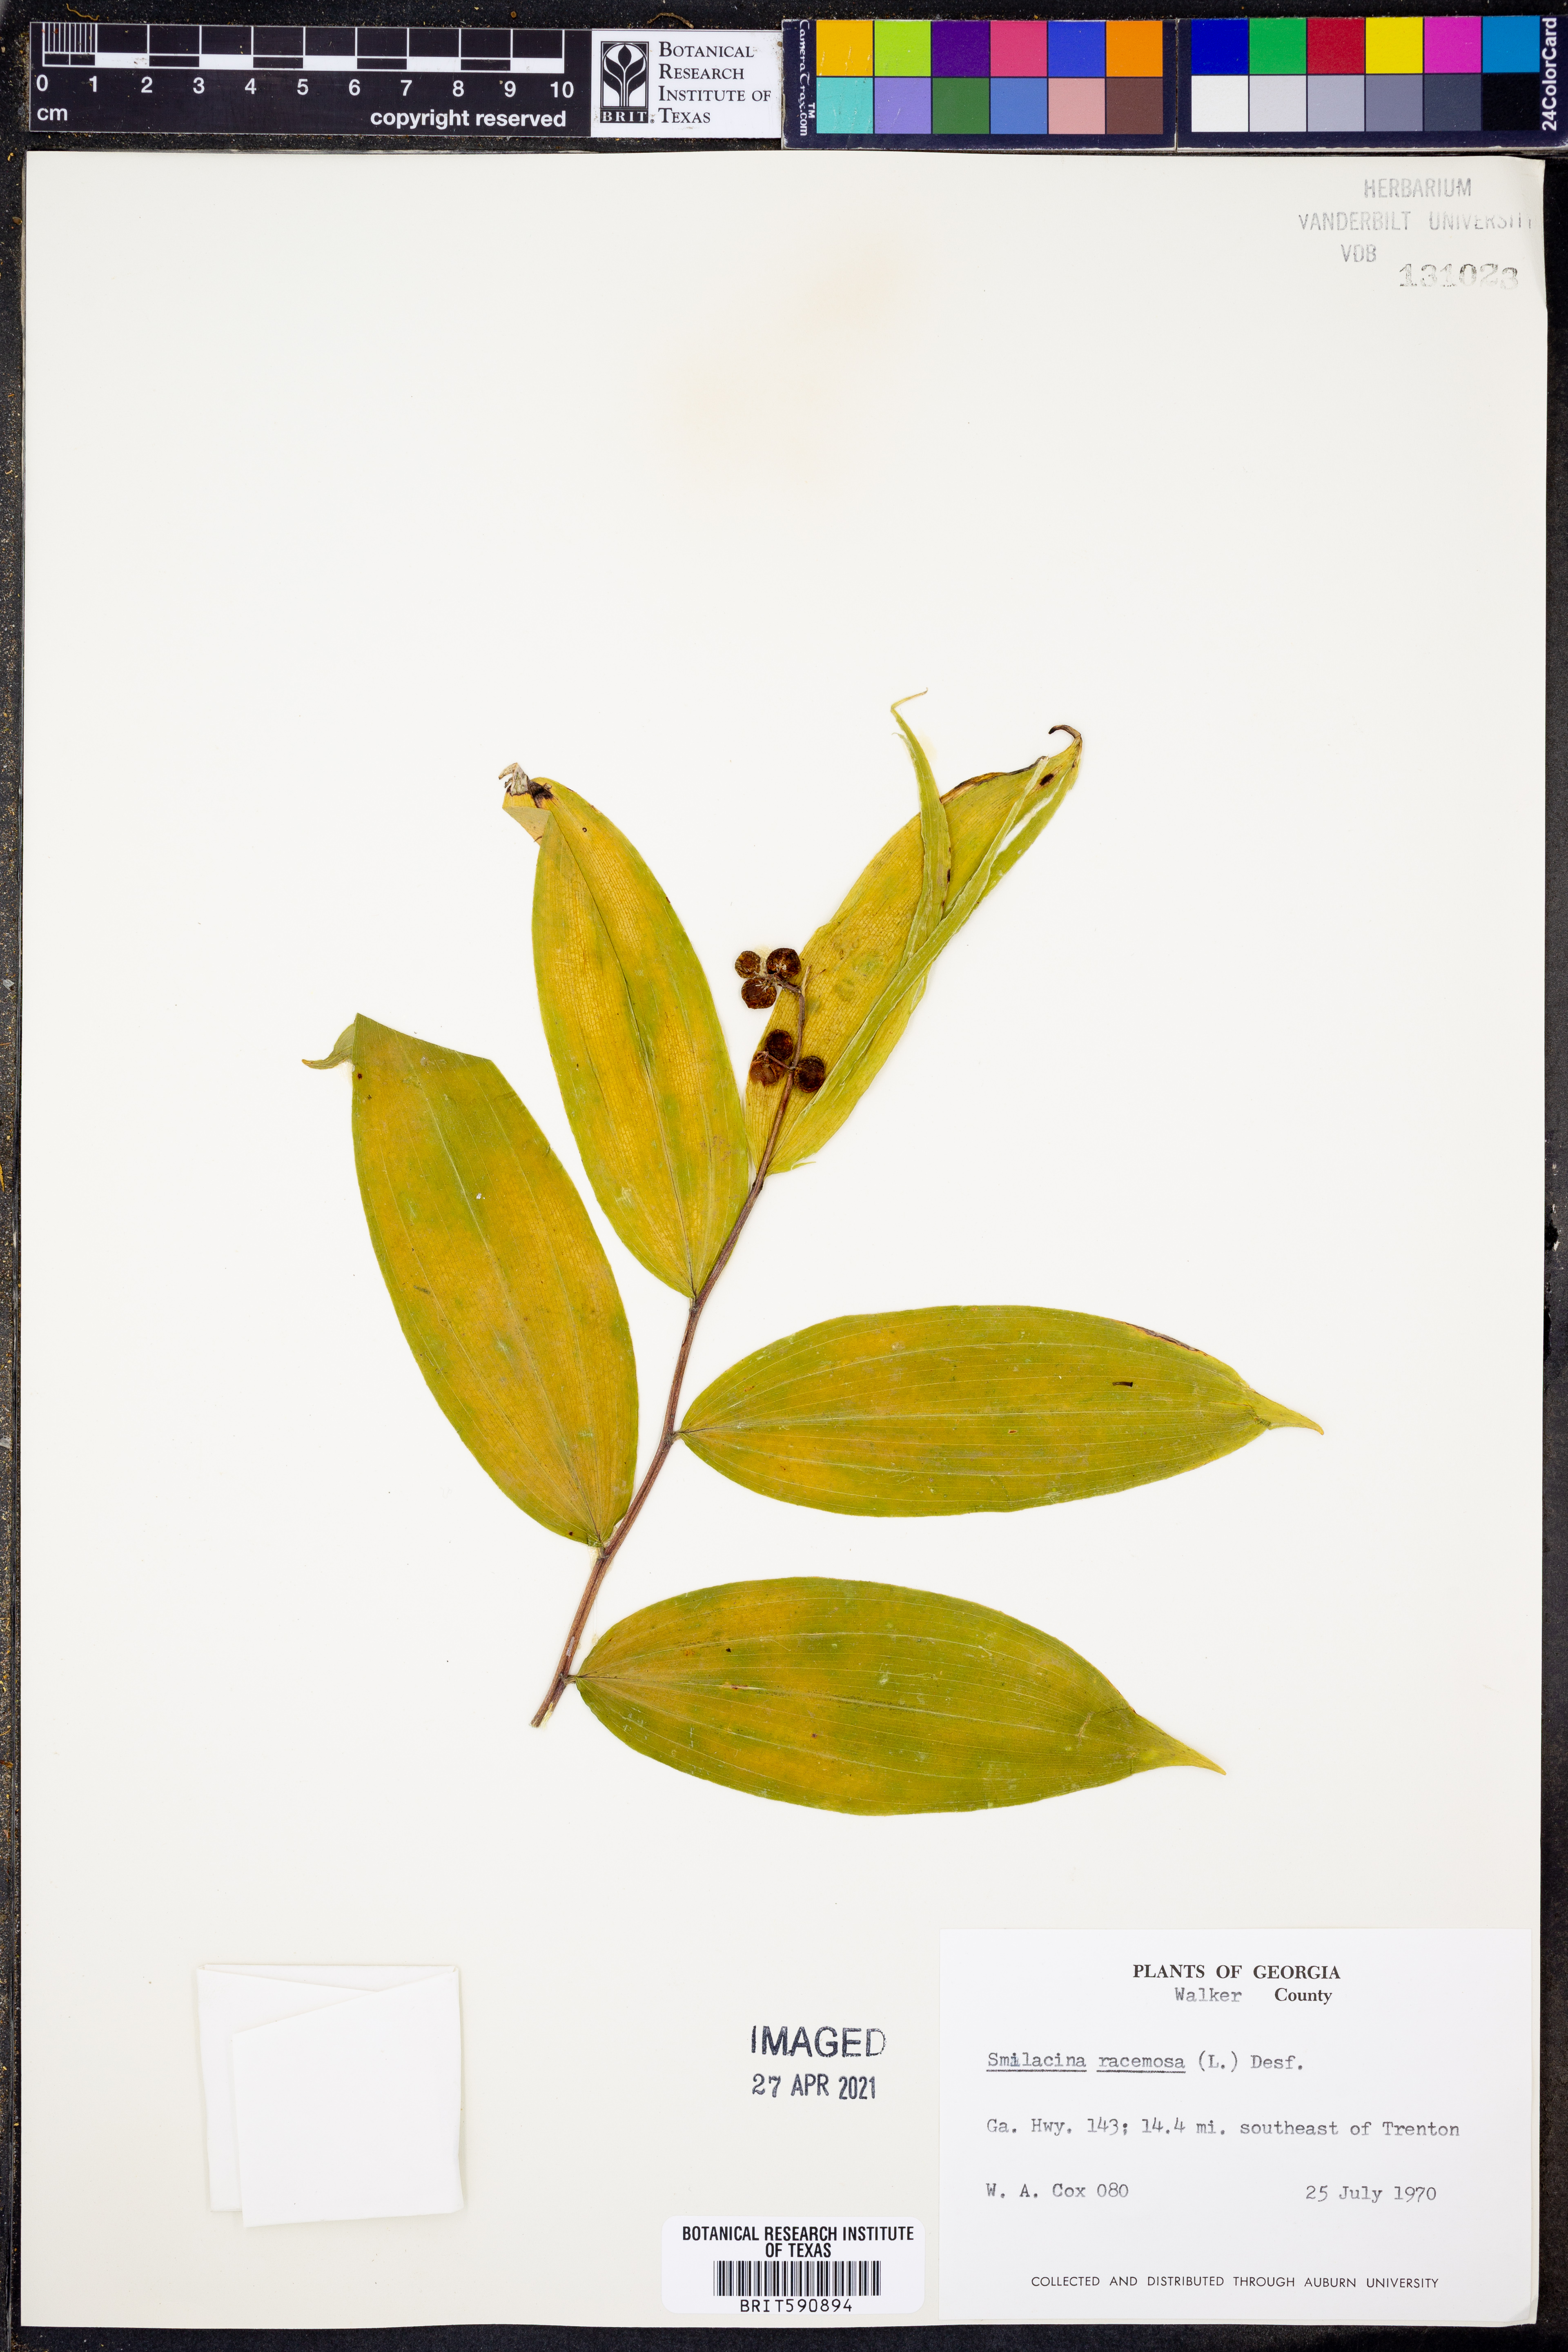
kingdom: Plantae
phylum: Tracheophyta
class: Liliopsida
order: Asparagales
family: Asparagaceae
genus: Maianthemum
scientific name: Maianthemum racemosum
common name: False spikenard
